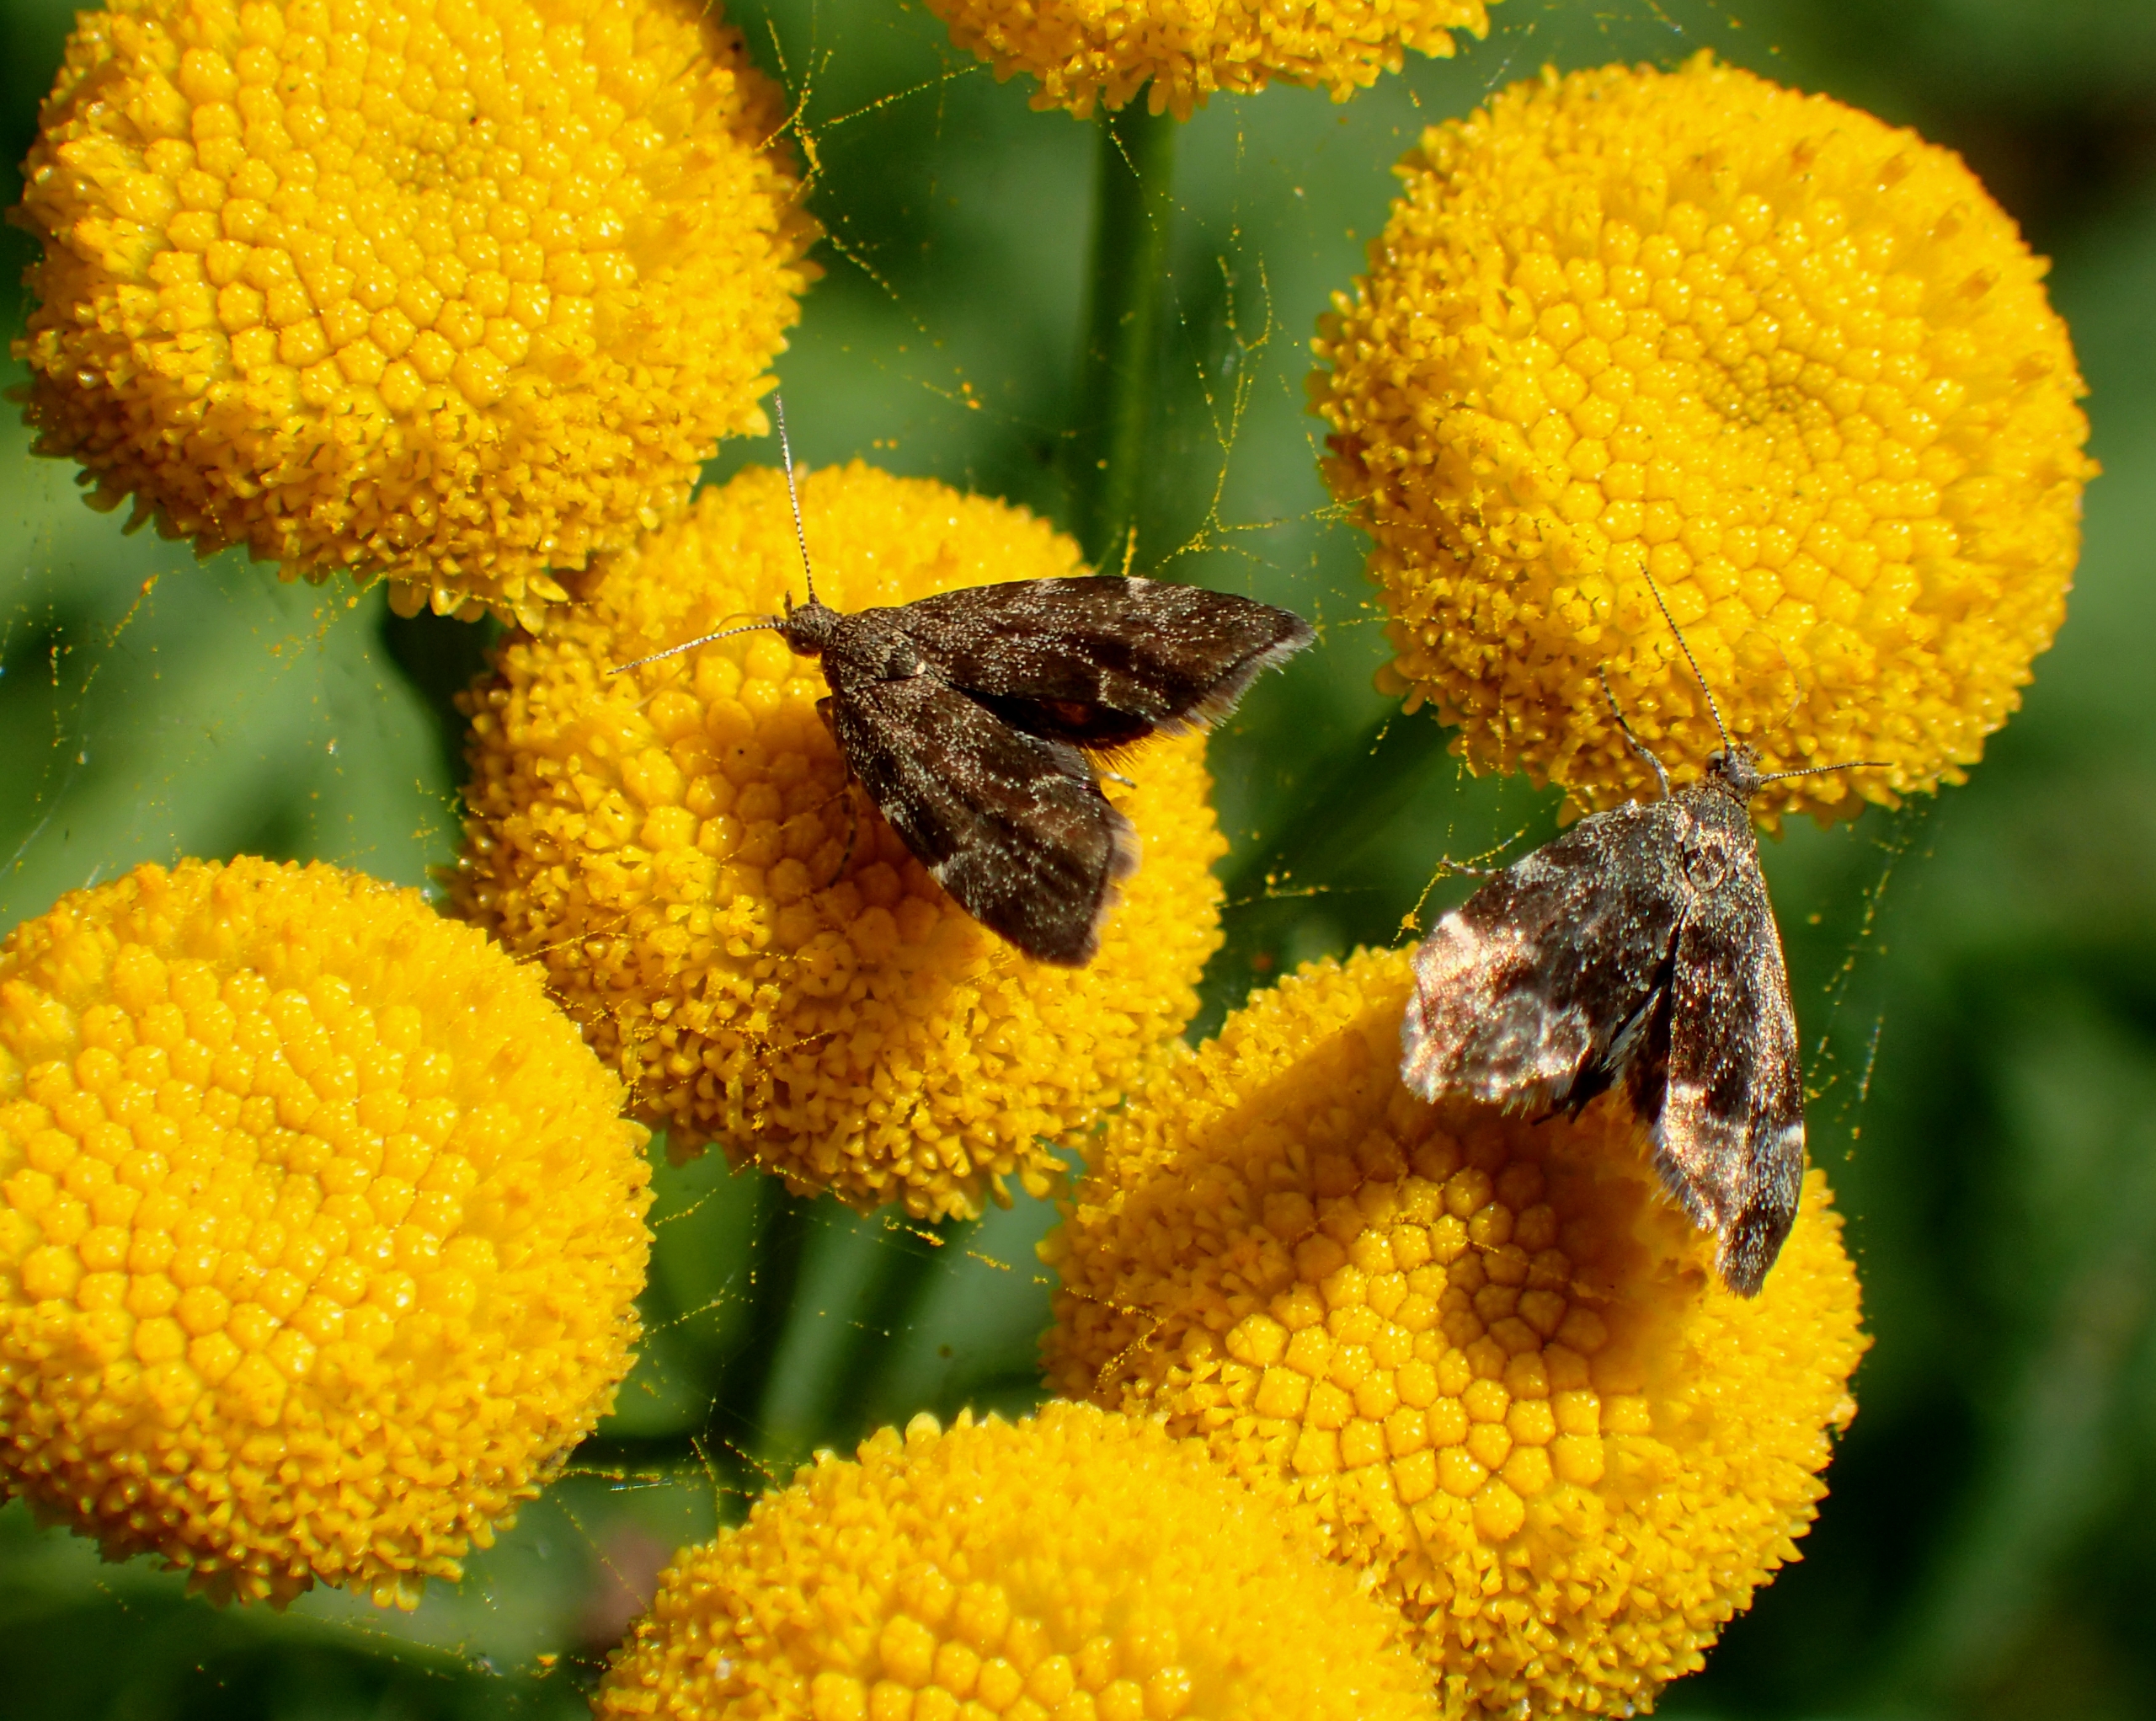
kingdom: Animalia
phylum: Arthropoda
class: Insecta
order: Lepidoptera
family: Choreutidae
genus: Anthophila
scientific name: Anthophila fabriciana
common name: Bredvinget nældevikler
